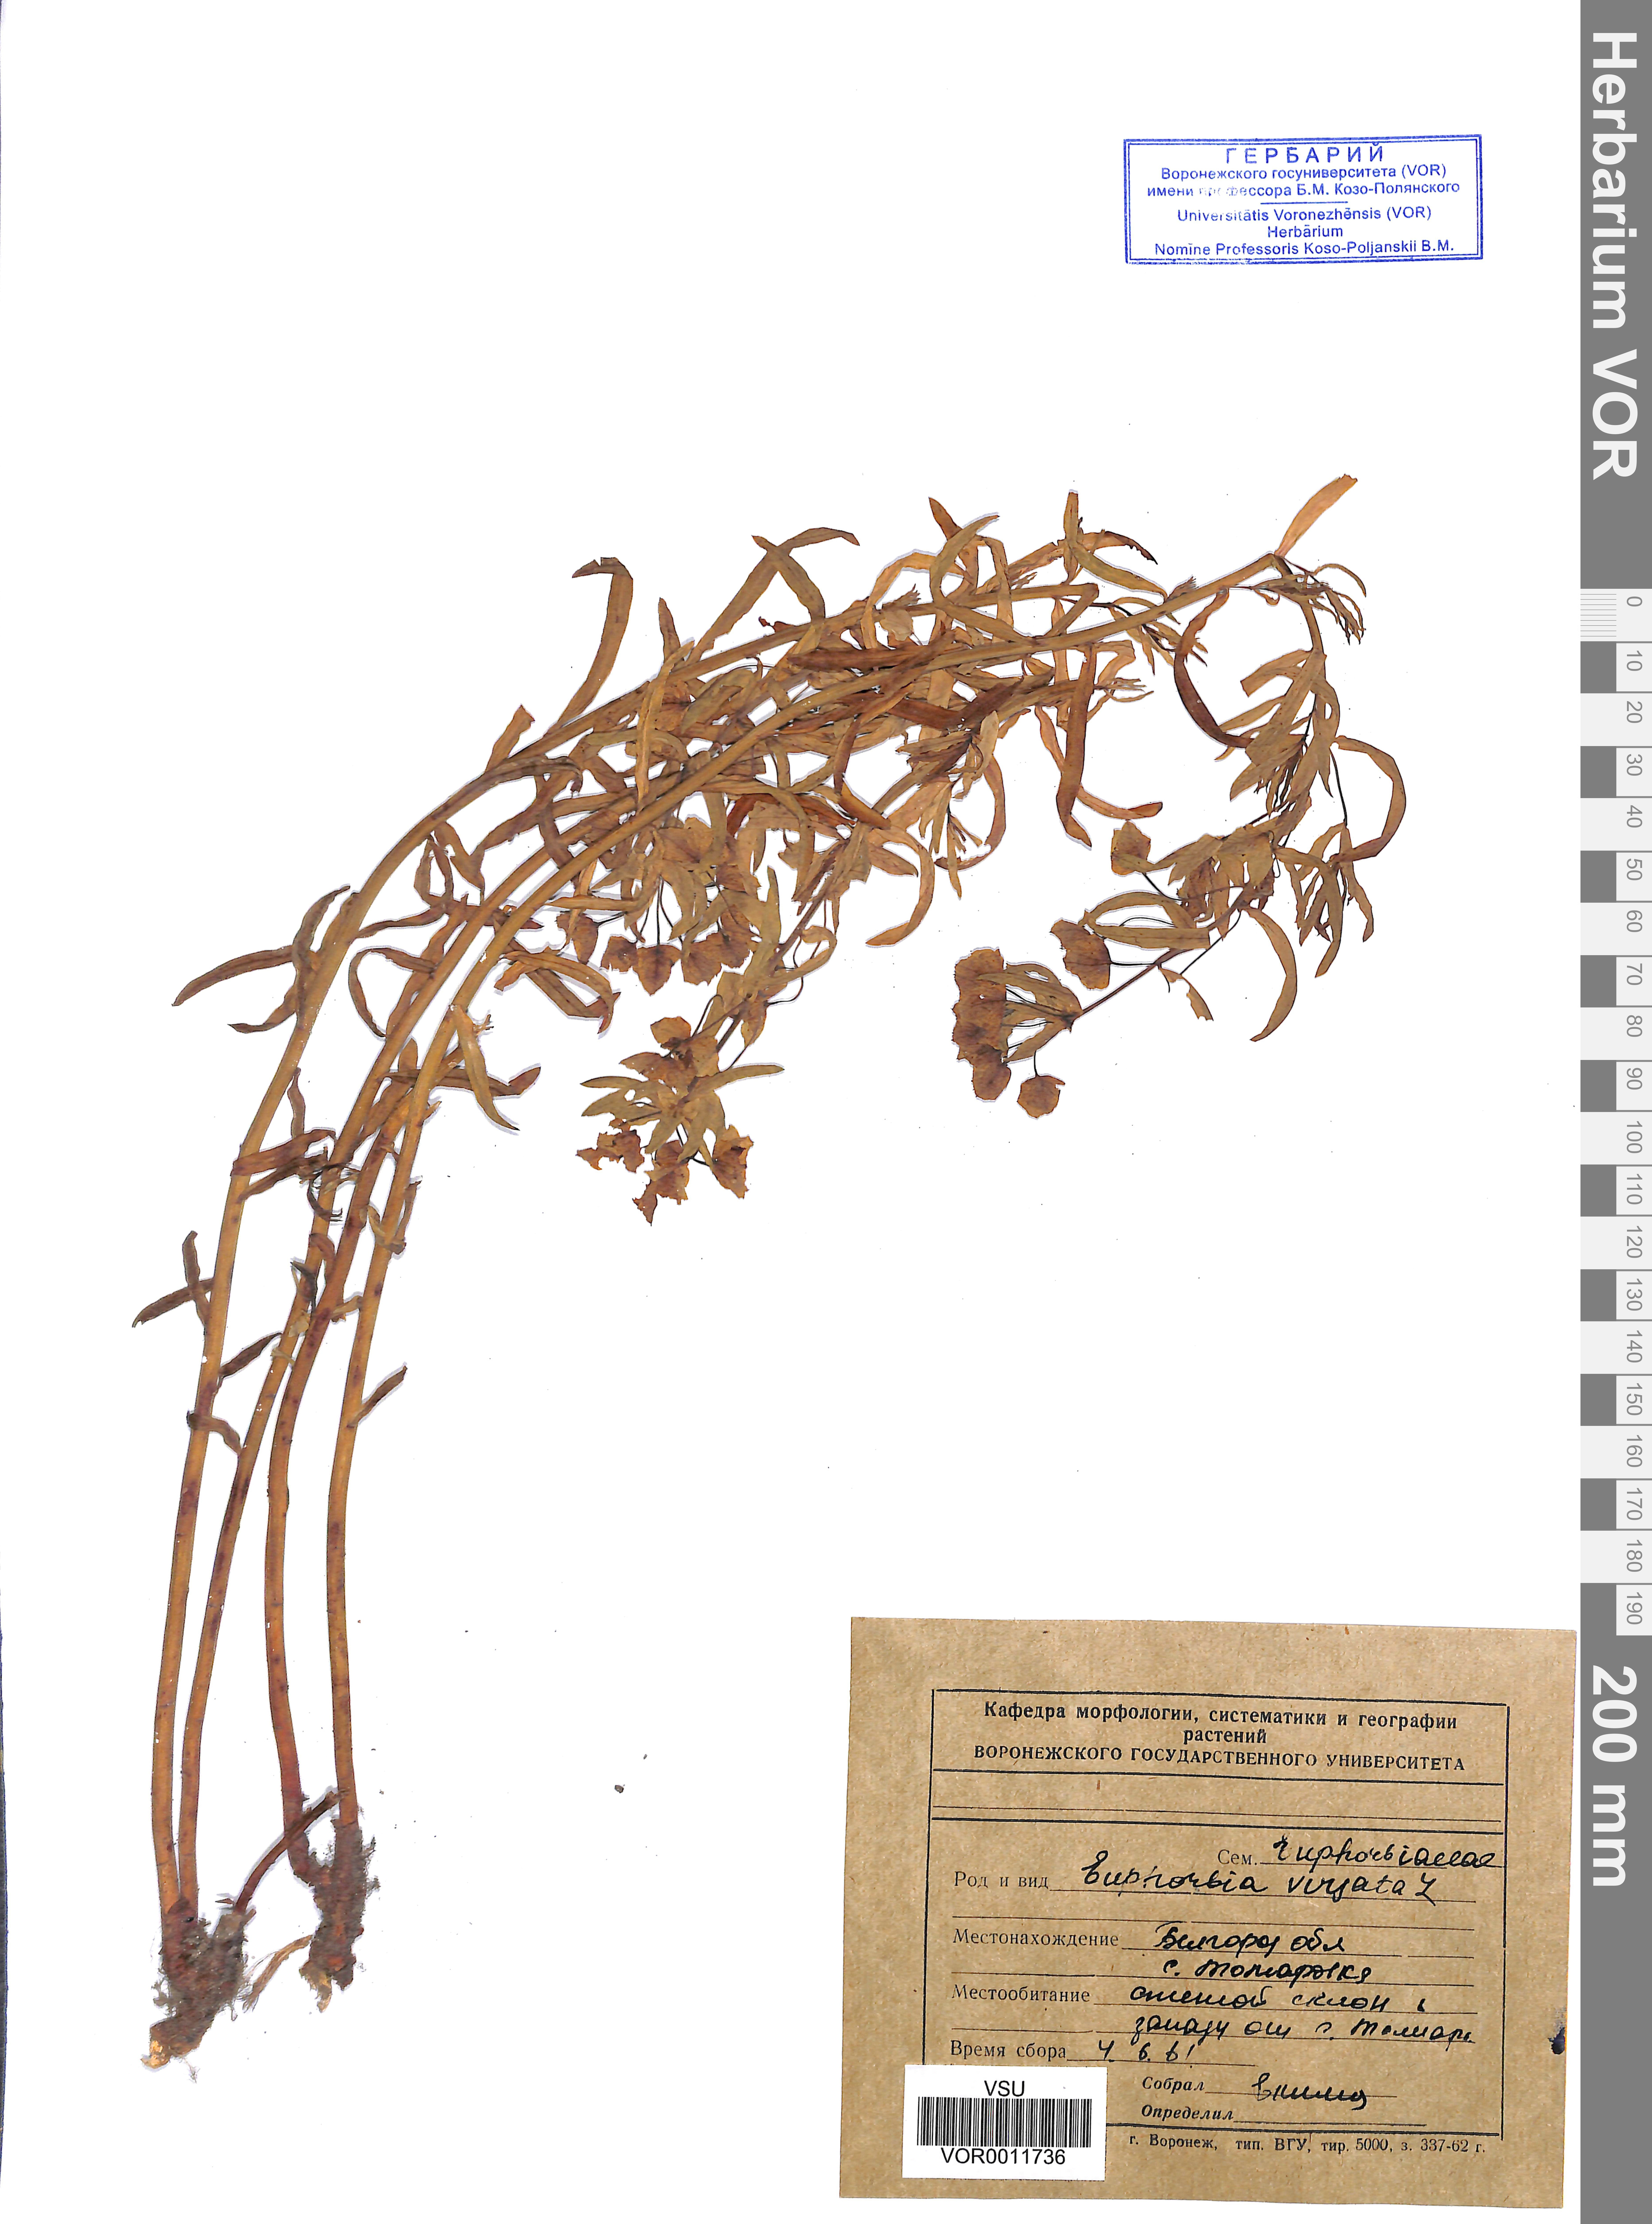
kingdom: Plantae
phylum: Tracheophyta
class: Magnoliopsida
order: Malpighiales
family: Euphorbiaceae
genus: Euphorbia
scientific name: Euphorbia virgata
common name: Leafy spurge
